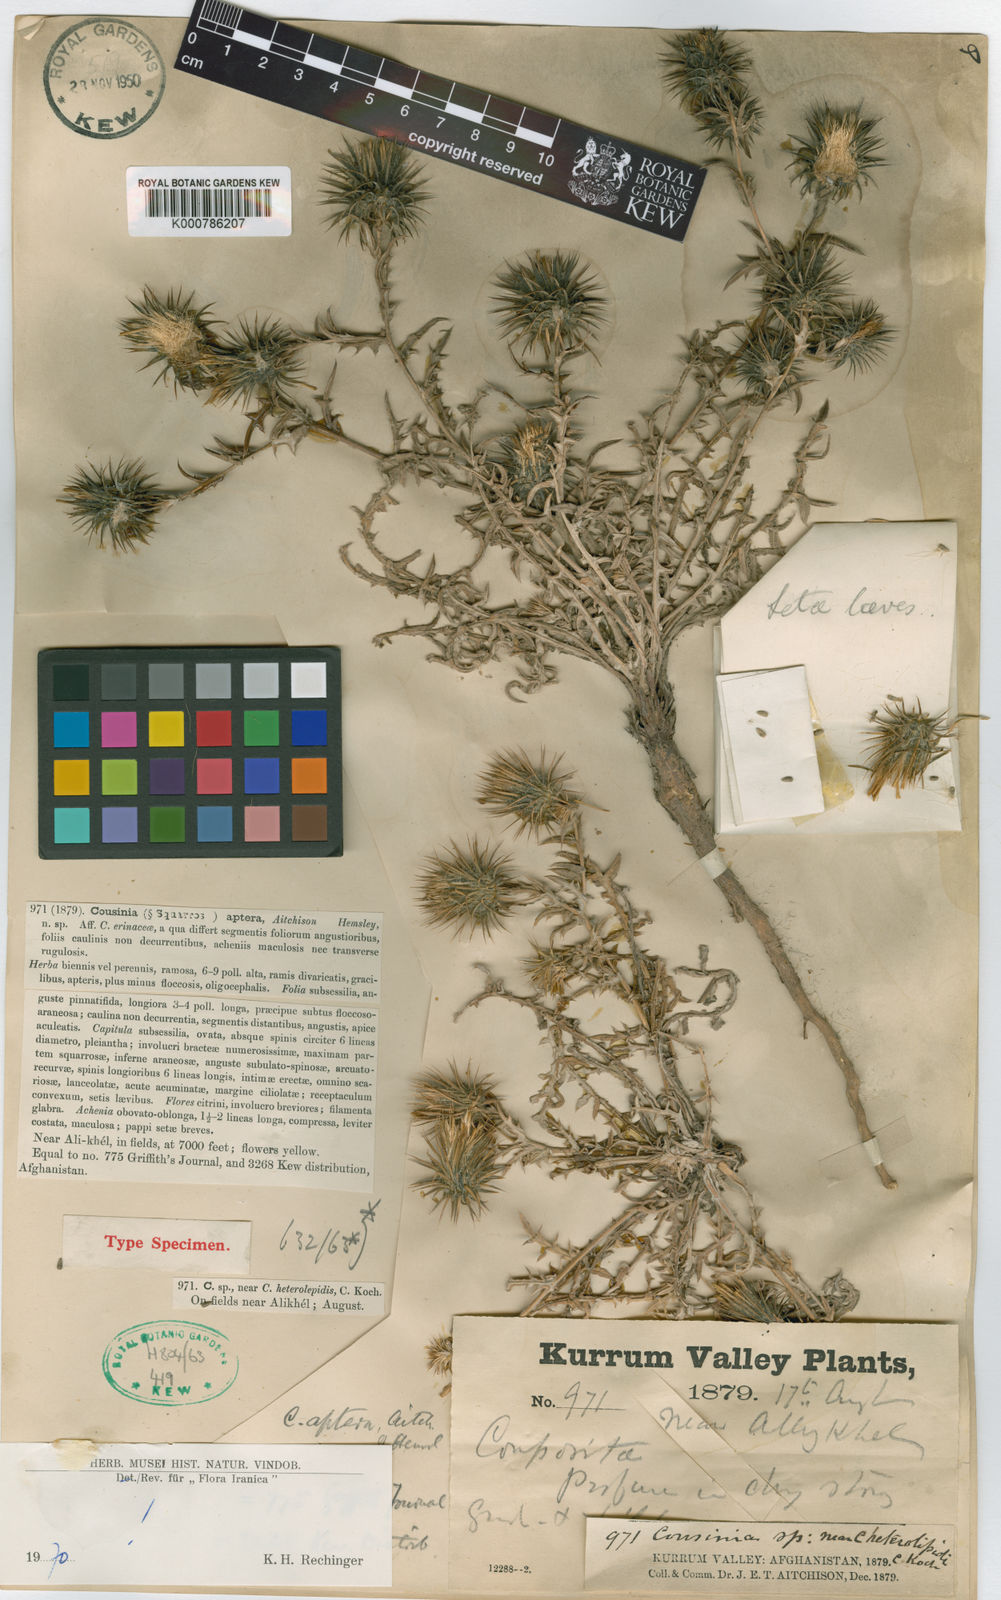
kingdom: Plantae
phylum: Tracheophyta
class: Magnoliopsida
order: Asterales
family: Asteraceae
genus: Cousinia
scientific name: Cousinia aptera
